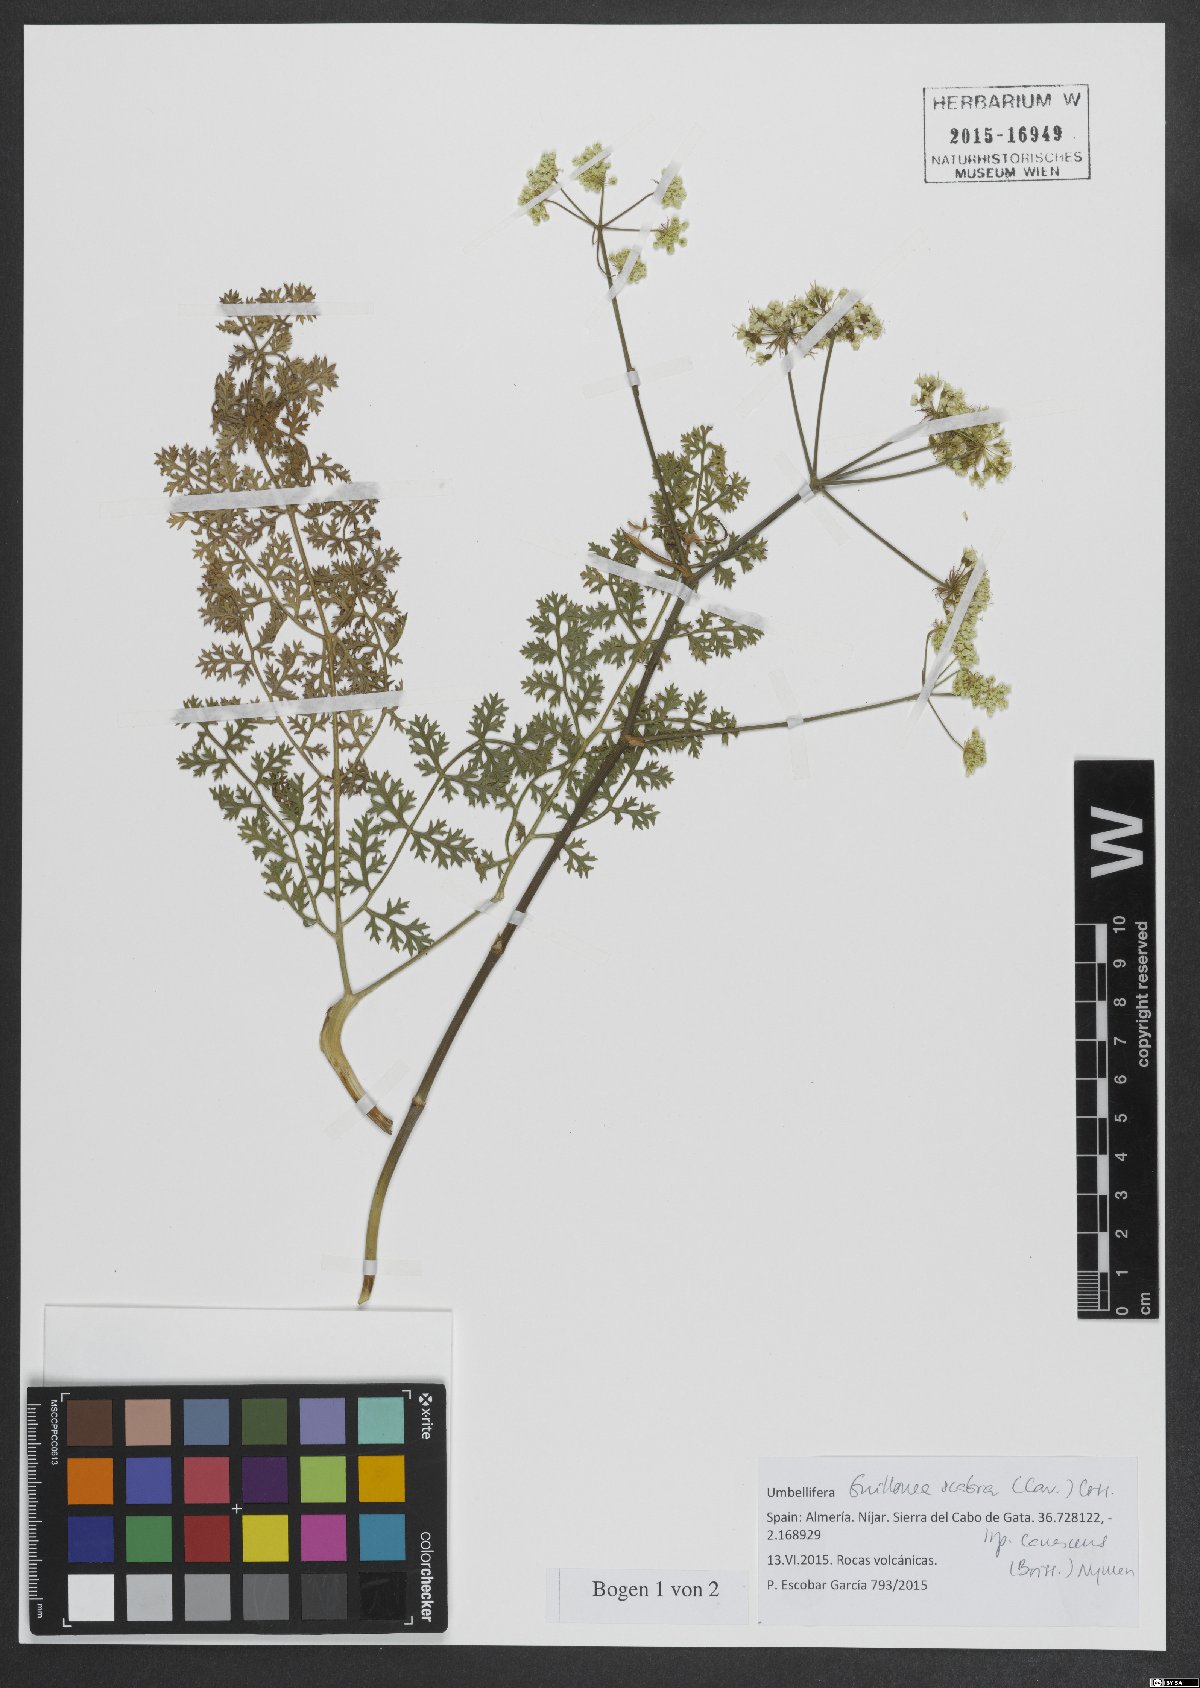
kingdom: Plantae
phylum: Tracheophyta
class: Magnoliopsida
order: Apiales
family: Apiaceae
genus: Thapsia
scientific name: Thapsia scabra
